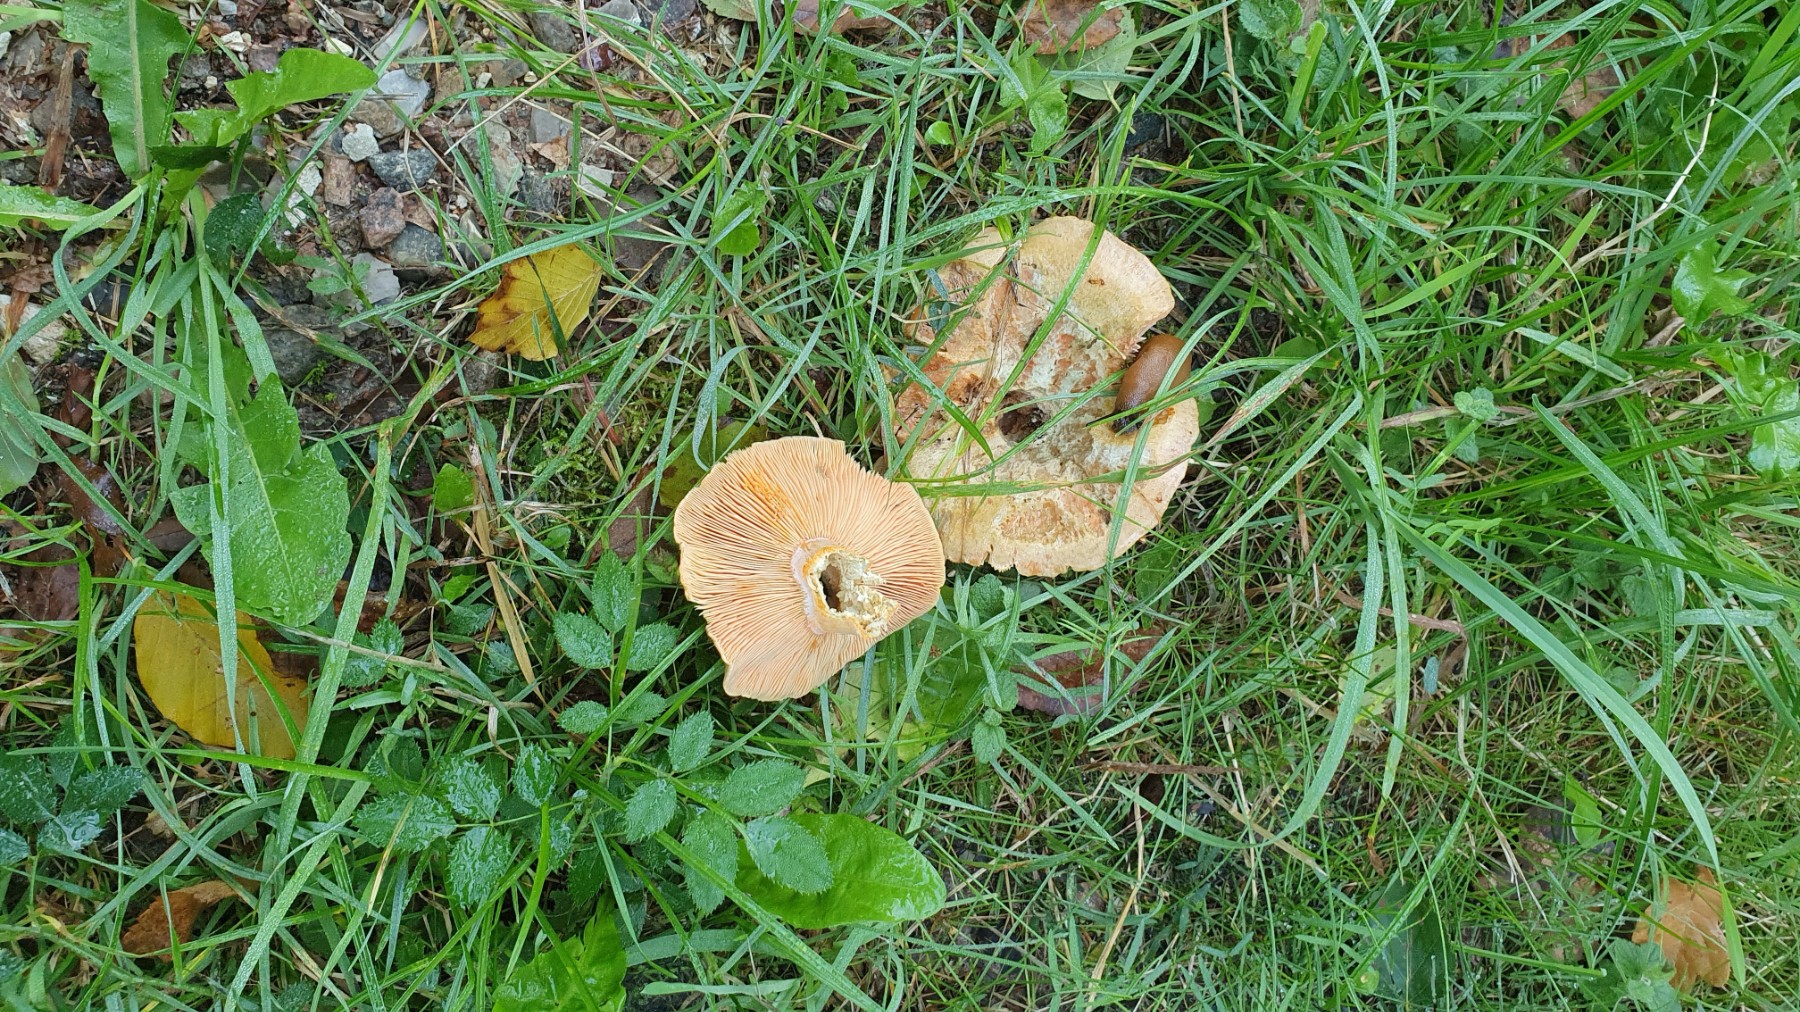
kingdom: Fungi
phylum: Basidiomycota
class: Agaricomycetes
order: Russulales
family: Russulaceae
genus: Lactarius
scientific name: Lactarius deterrimus
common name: gran-mælkehat
